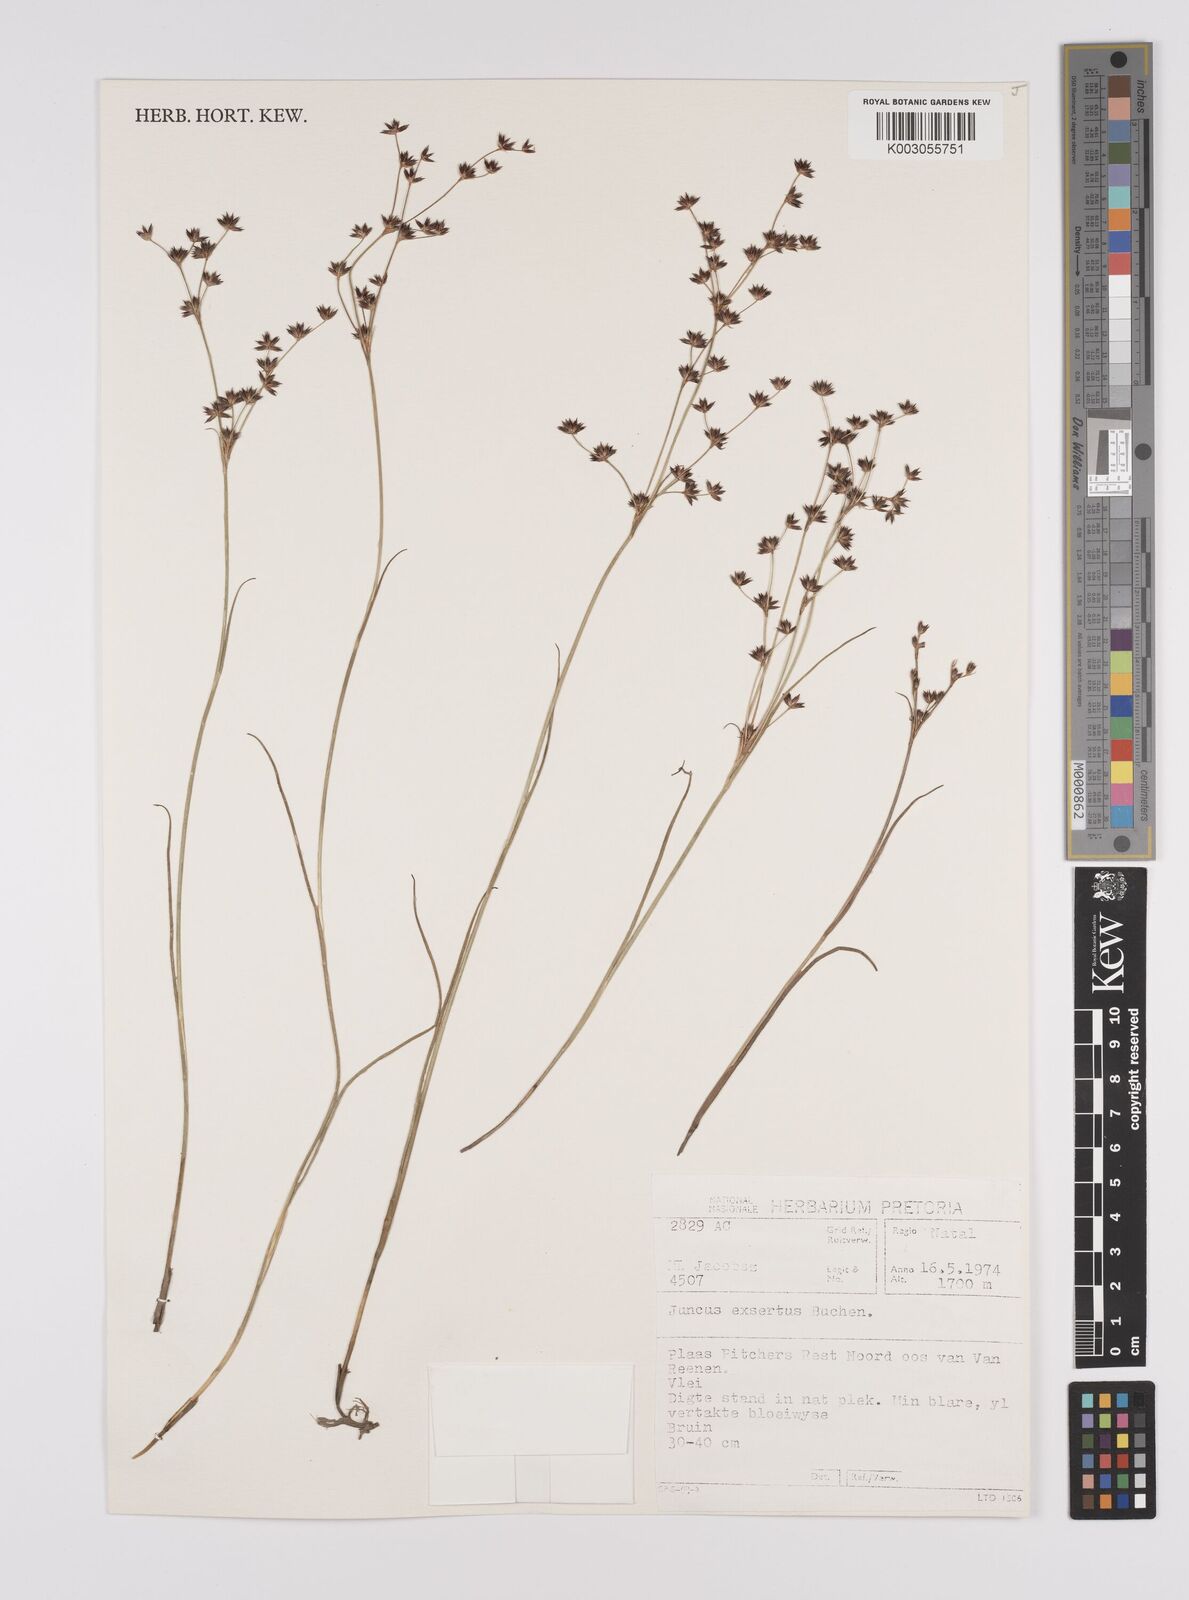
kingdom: Plantae
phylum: Tracheophyta
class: Liliopsida
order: Poales
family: Juncaceae
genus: Juncus
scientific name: Juncus exsertus
